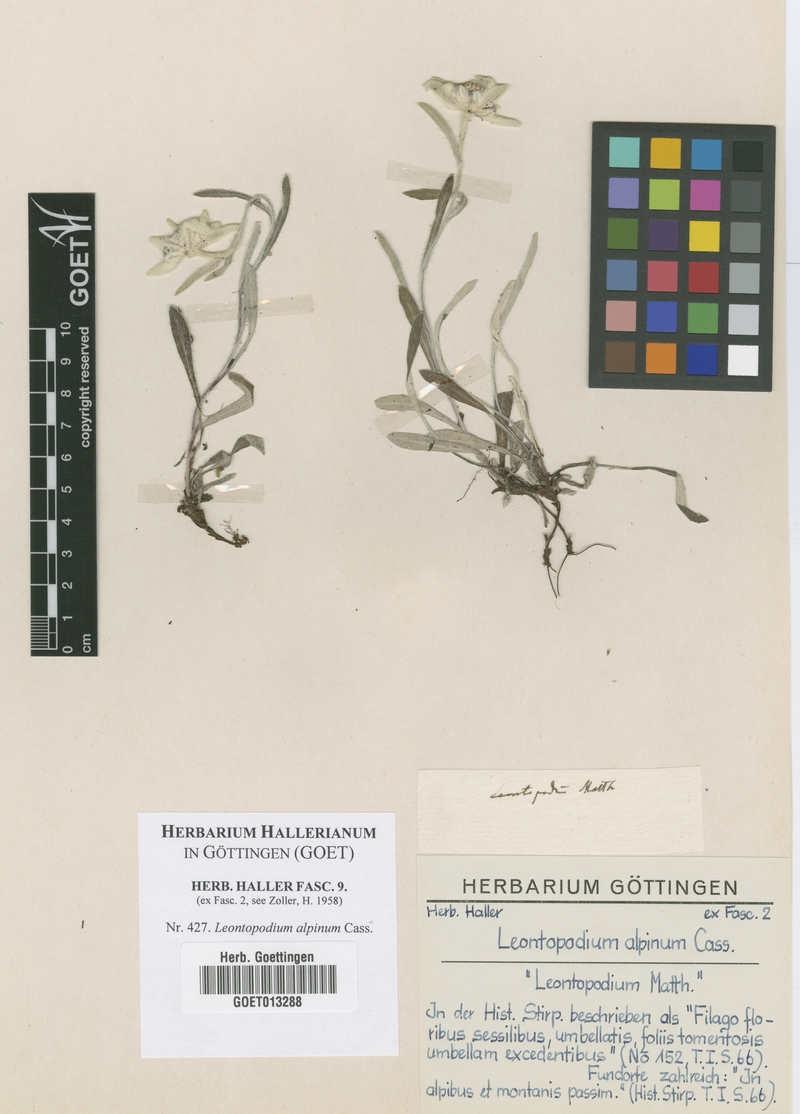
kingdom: Plantae
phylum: Tracheophyta
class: Magnoliopsida
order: Asterales
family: Asteraceae
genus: Leontopodium
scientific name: Leontopodium nivale
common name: Edelweiss
